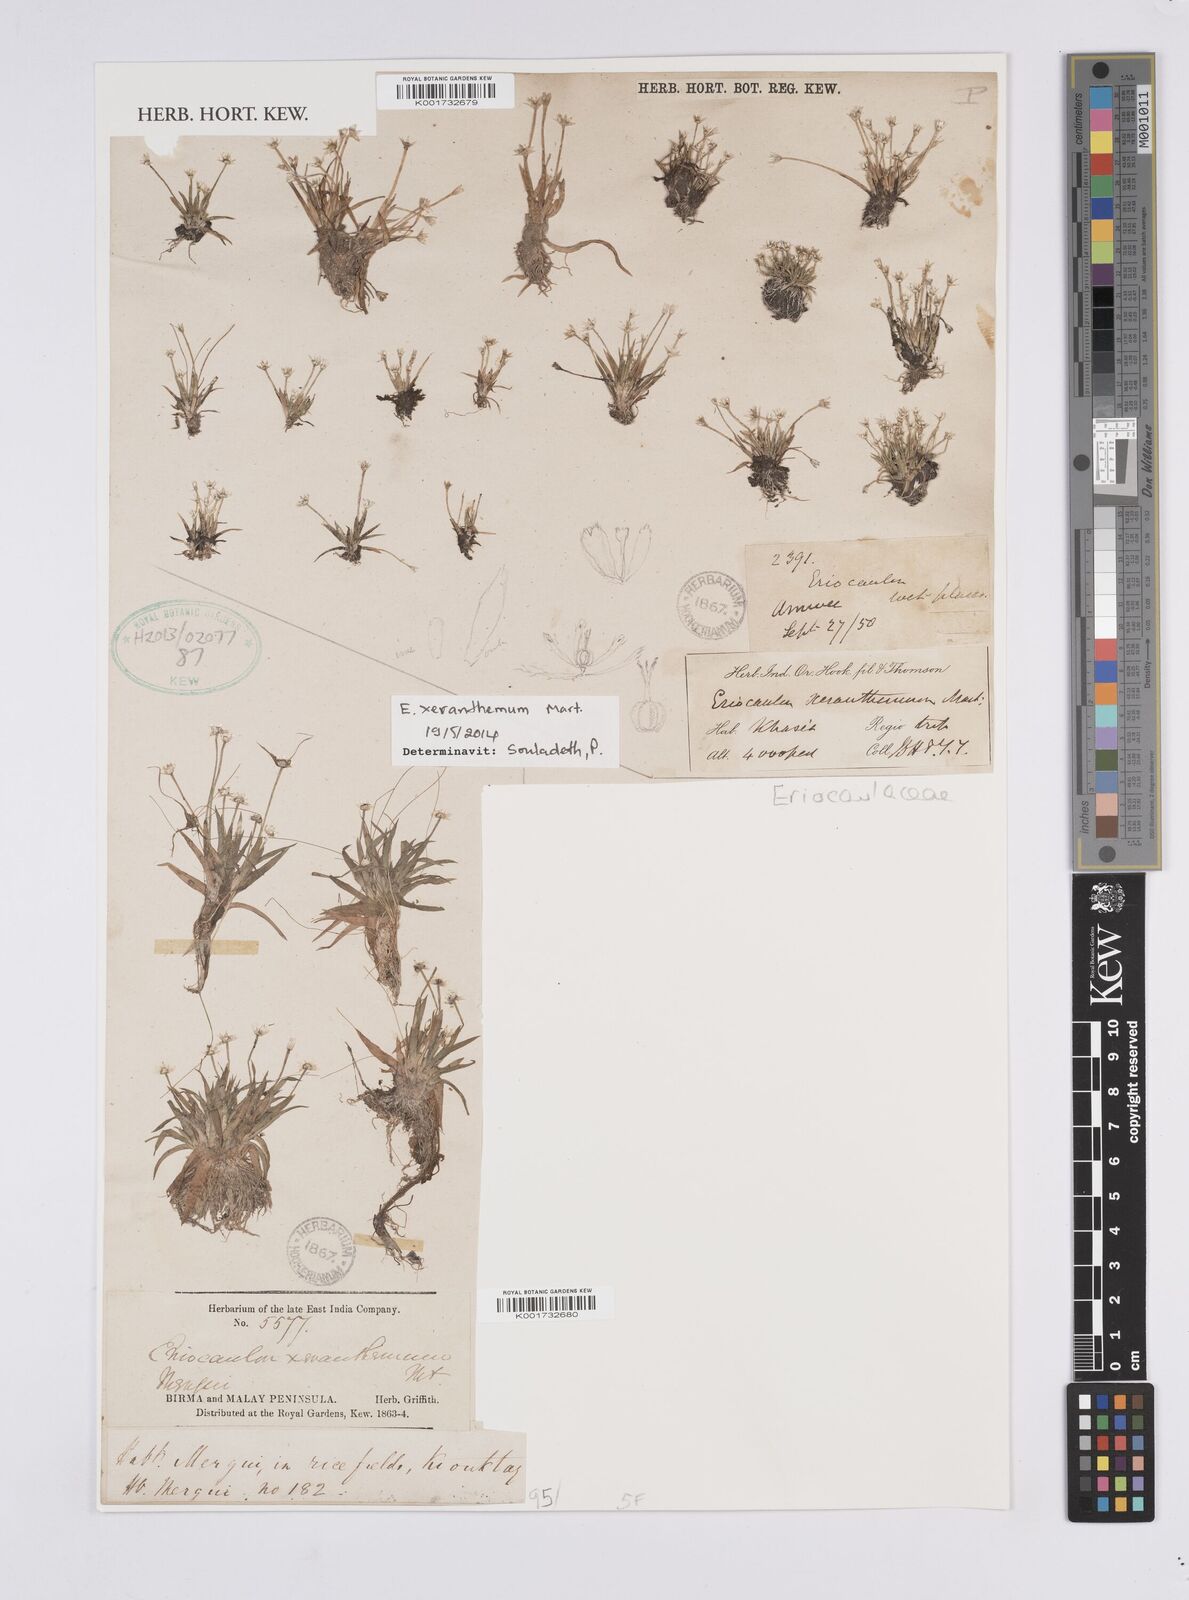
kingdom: Plantae
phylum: Tracheophyta
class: Liliopsida
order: Poales
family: Eriocaulaceae
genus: Eriocaulon
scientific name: Eriocaulon xeranthemum
